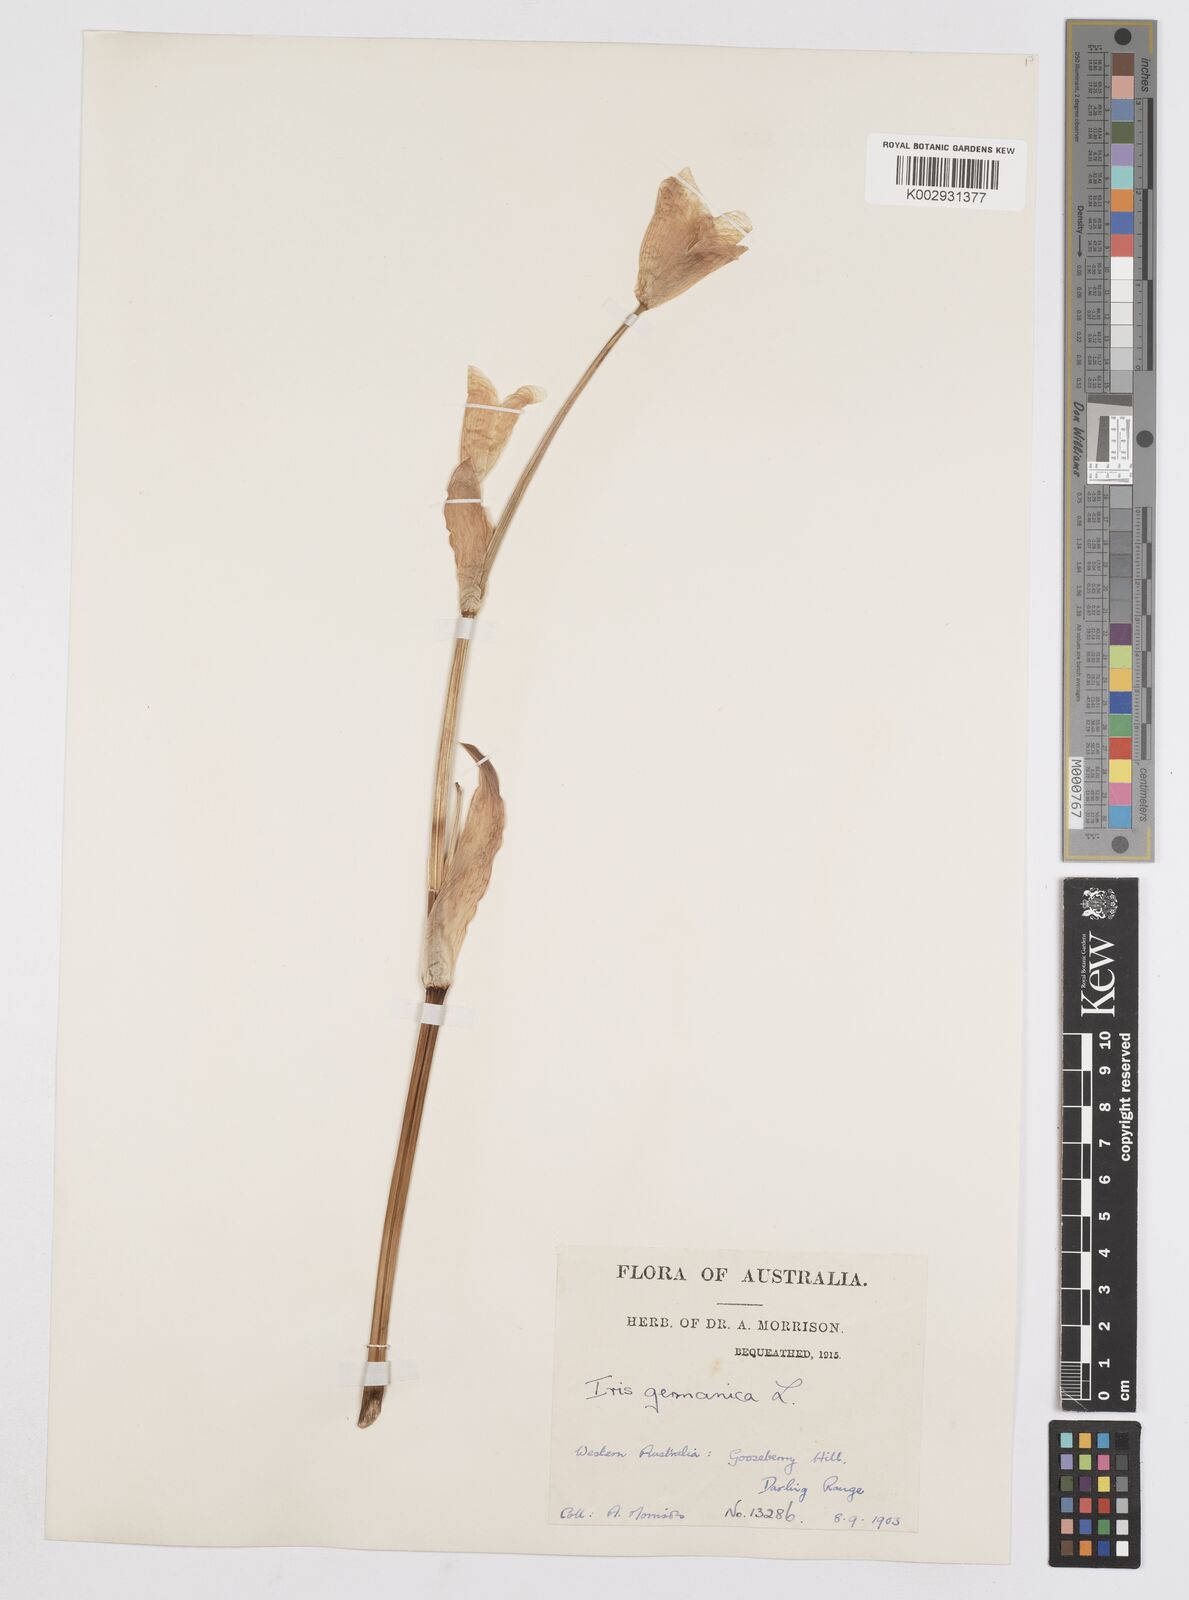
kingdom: Plantae
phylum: Tracheophyta
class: Liliopsida
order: Asparagales
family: Iridaceae
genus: Iris
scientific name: Iris germanica
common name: German iris
